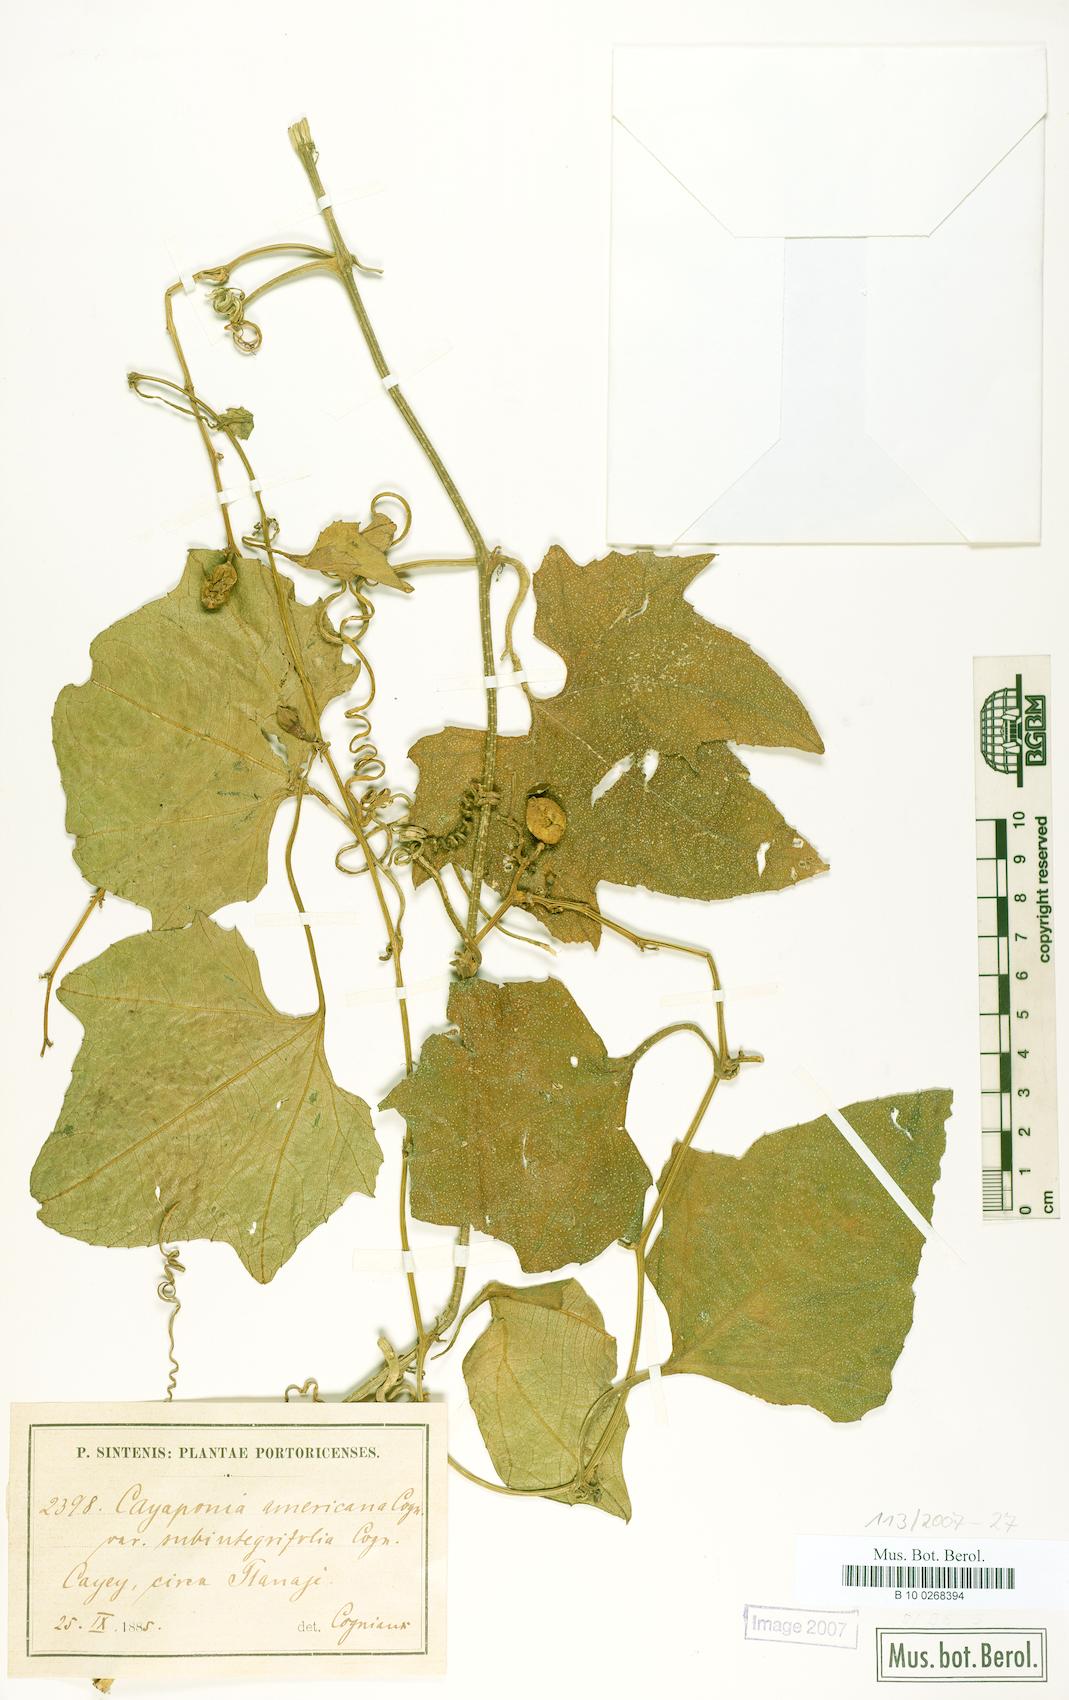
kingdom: Plantae
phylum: Tracheophyta
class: Magnoliopsida
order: Cucurbitales
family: Cucurbitaceae
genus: Cayaponia
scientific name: Cayaponia americana
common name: American melonleaf
